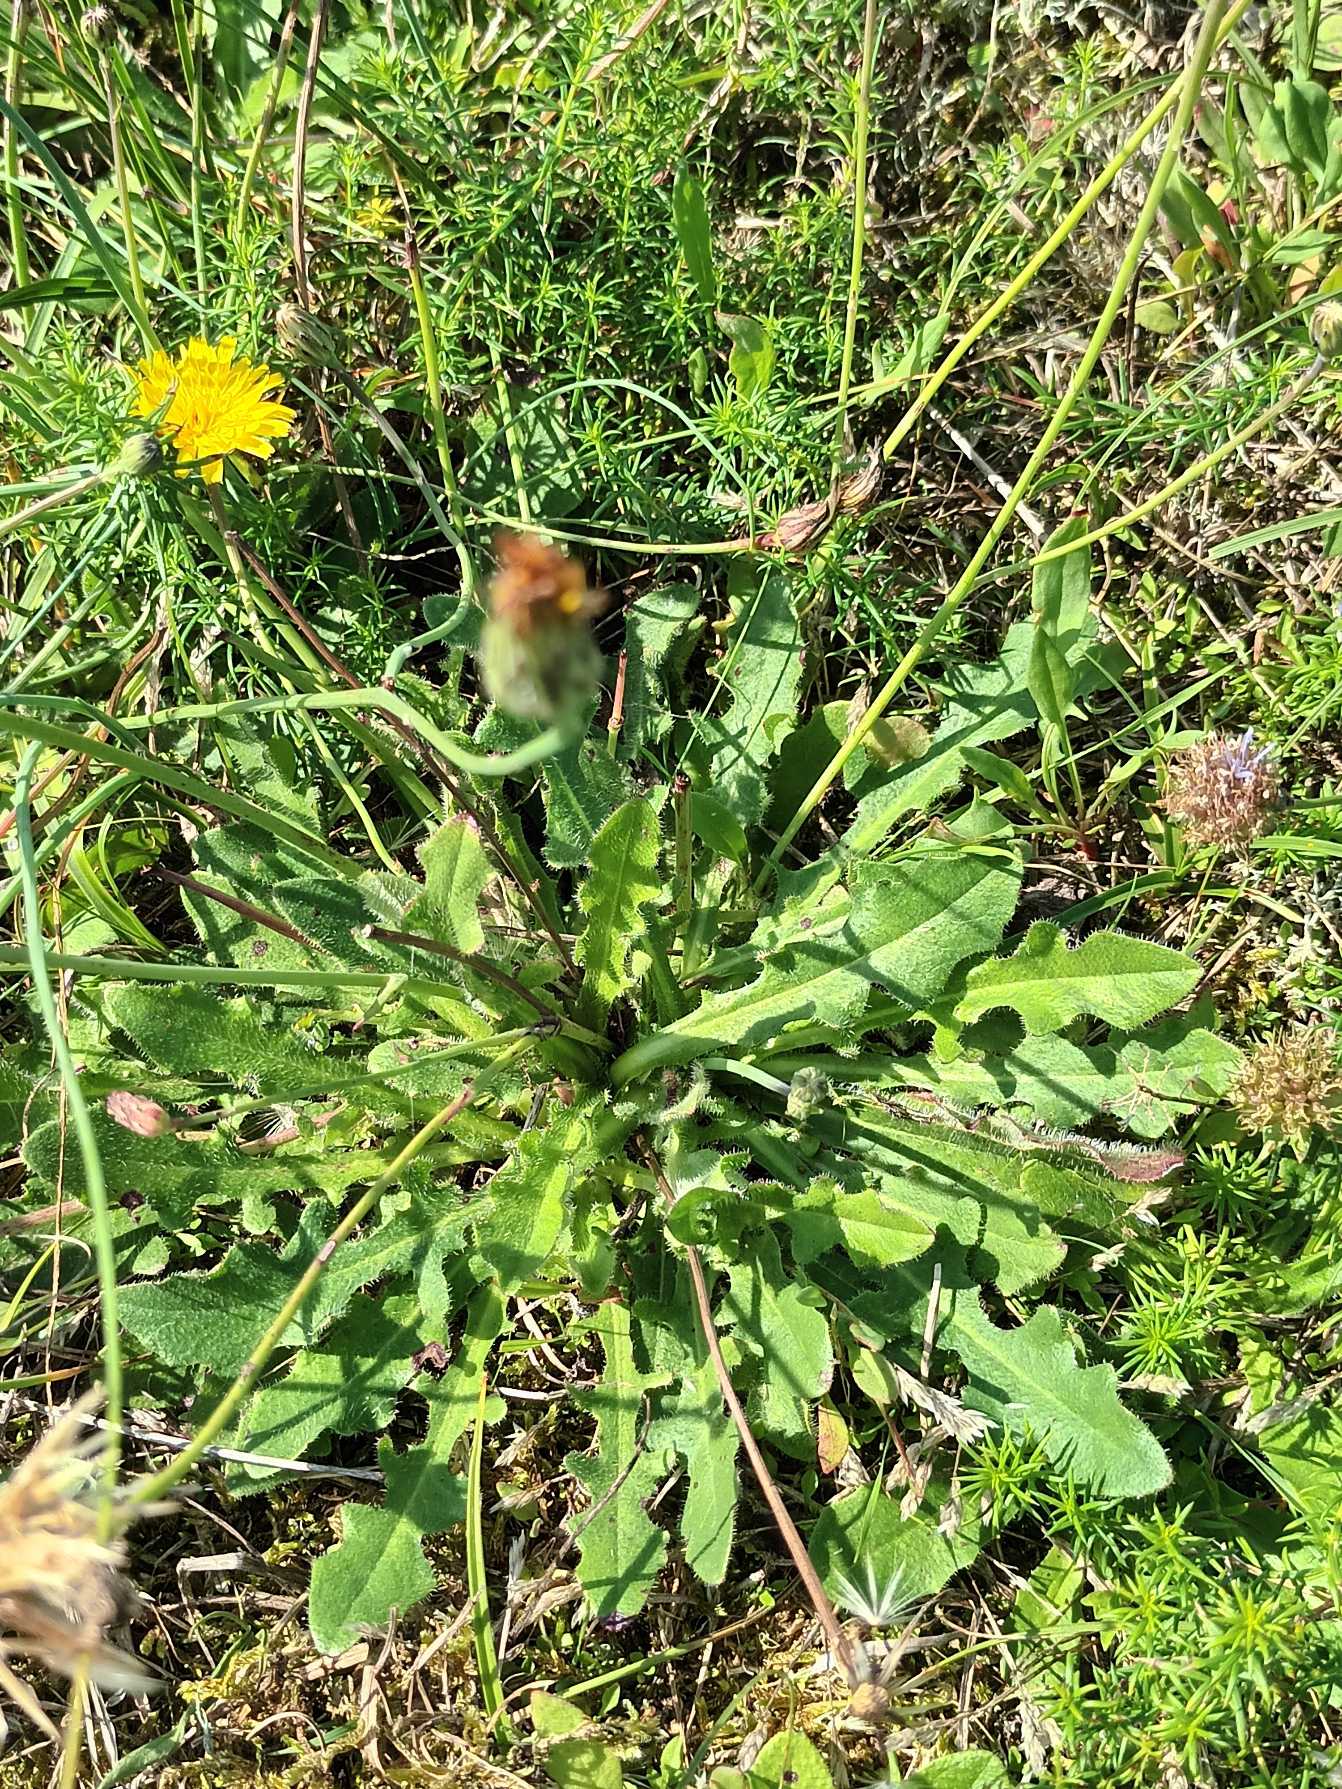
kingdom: Plantae
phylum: Tracheophyta
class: Magnoliopsida
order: Asterales
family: Asteraceae
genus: Hypochaeris
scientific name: Hypochaeris radicata
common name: Almindelig kongepen
